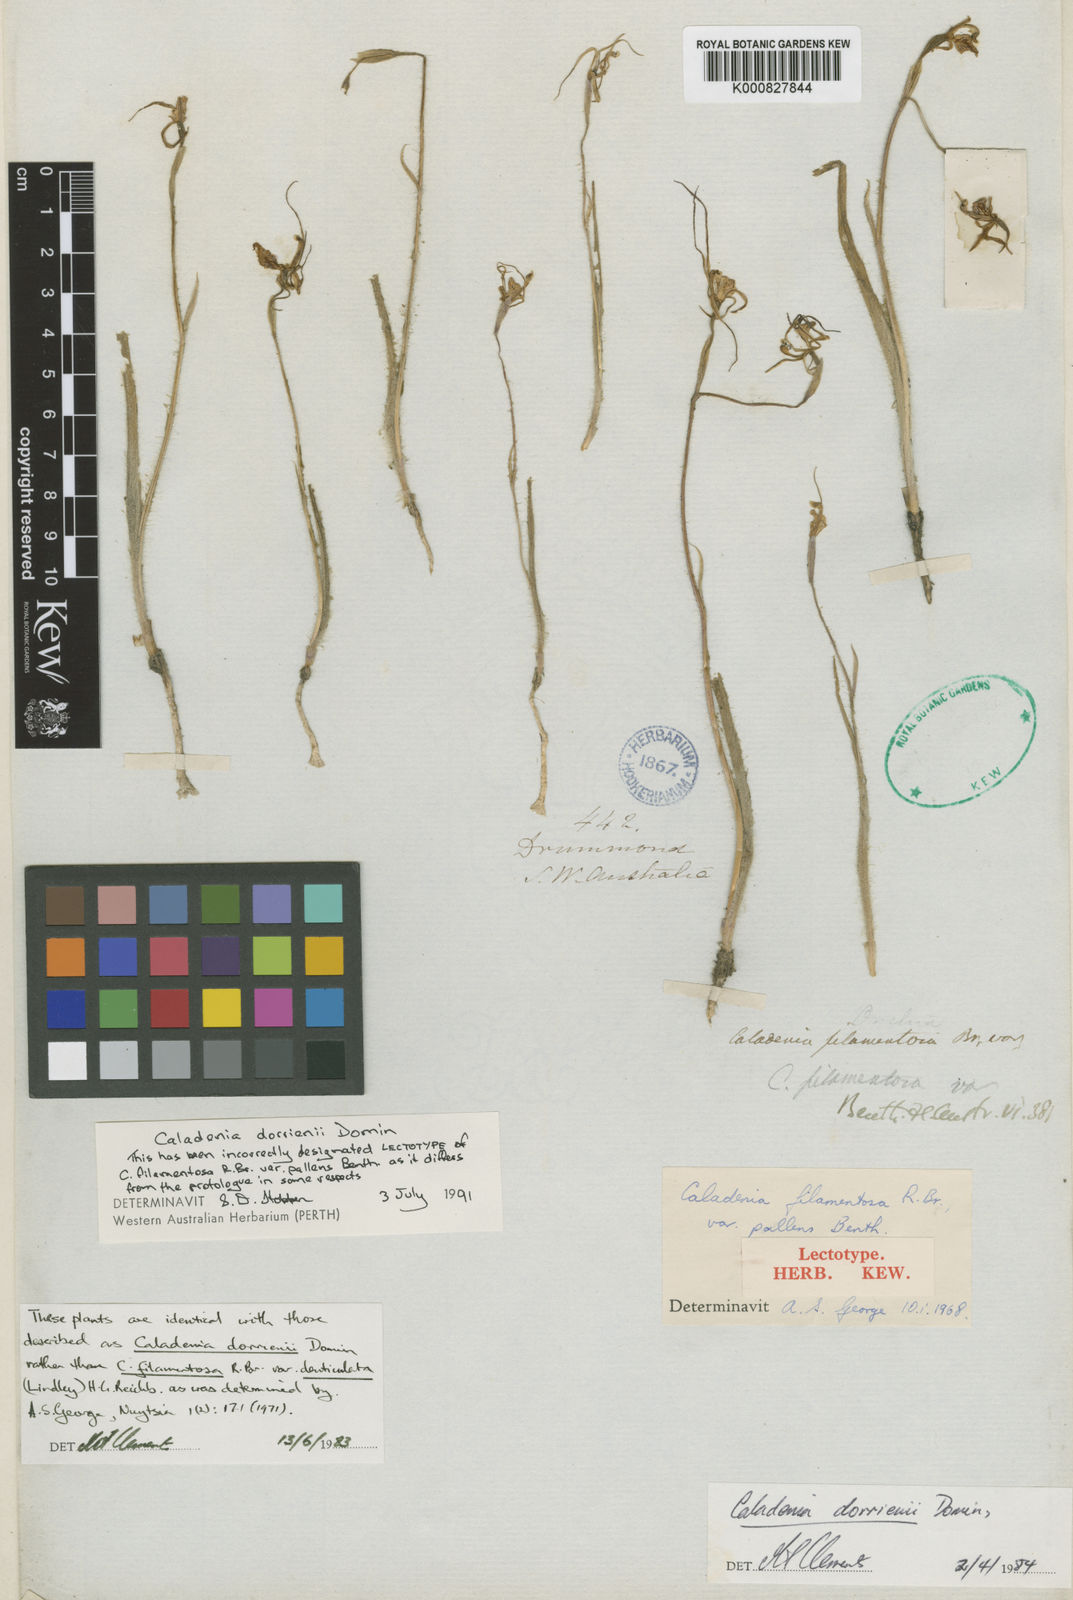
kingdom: Plantae
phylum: Tracheophyta
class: Liliopsida
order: Asparagales
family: Orchidaceae
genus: Caladenia
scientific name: Caladenia denticulata
